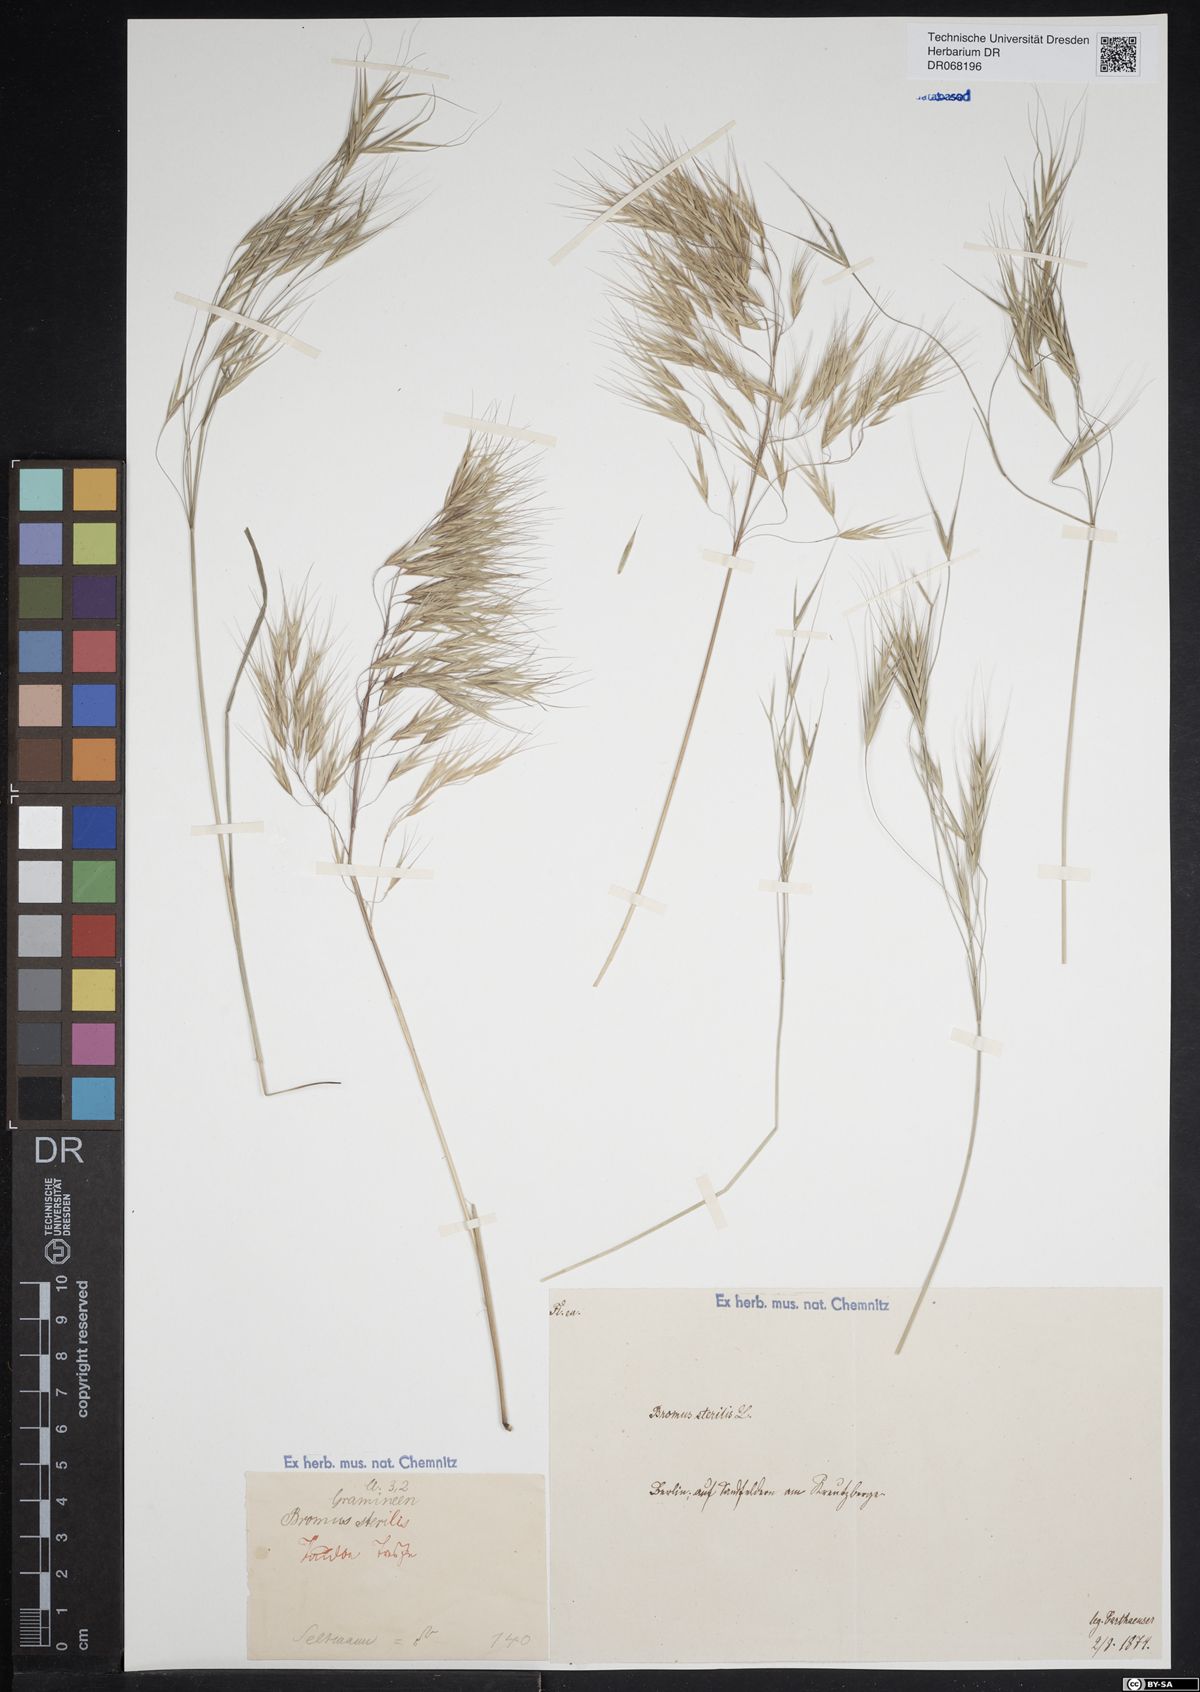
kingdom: Plantae
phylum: Tracheophyta
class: Liliopsida
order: Poales
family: Poaceae
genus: Bromus
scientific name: Bromus sterilis
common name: Poverty brome
